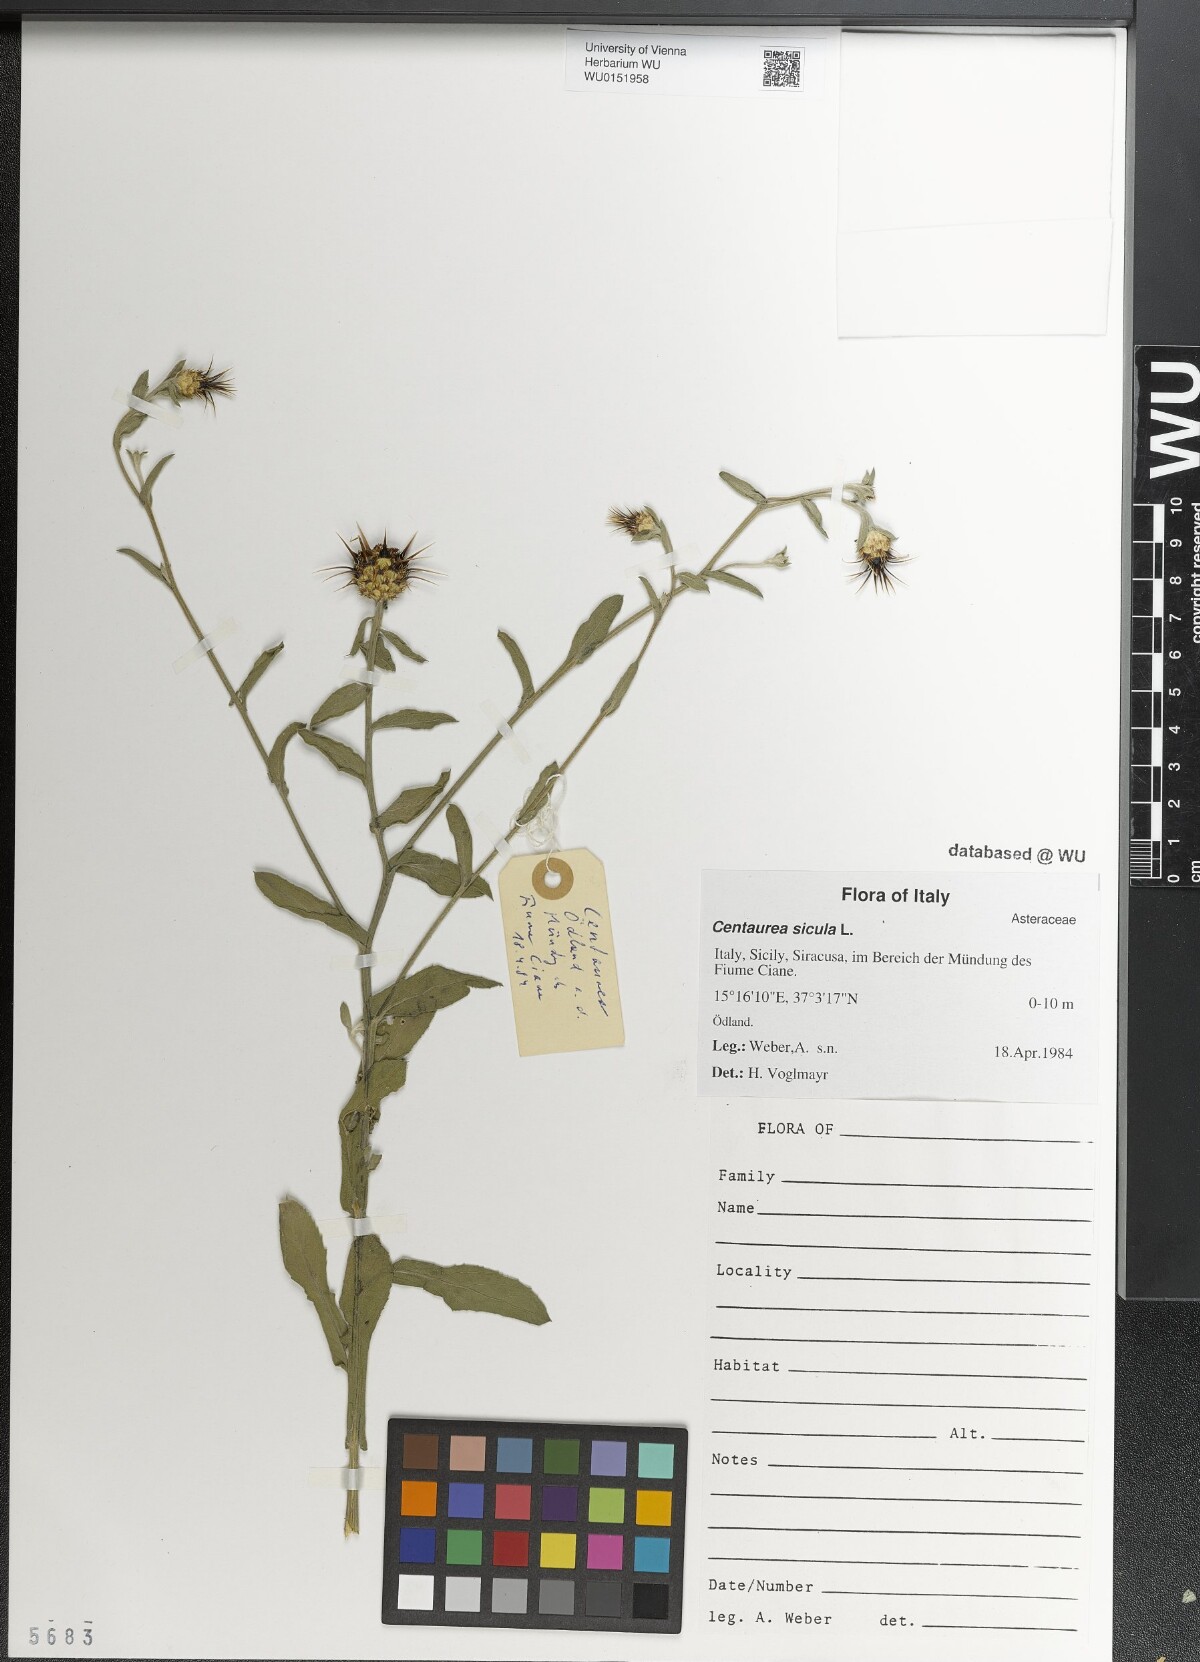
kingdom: Plantae
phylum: Tracheophyta
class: Magnoliopsida
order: Asterales
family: Asteraceae
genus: Centaurea
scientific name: Centaurea sicula
